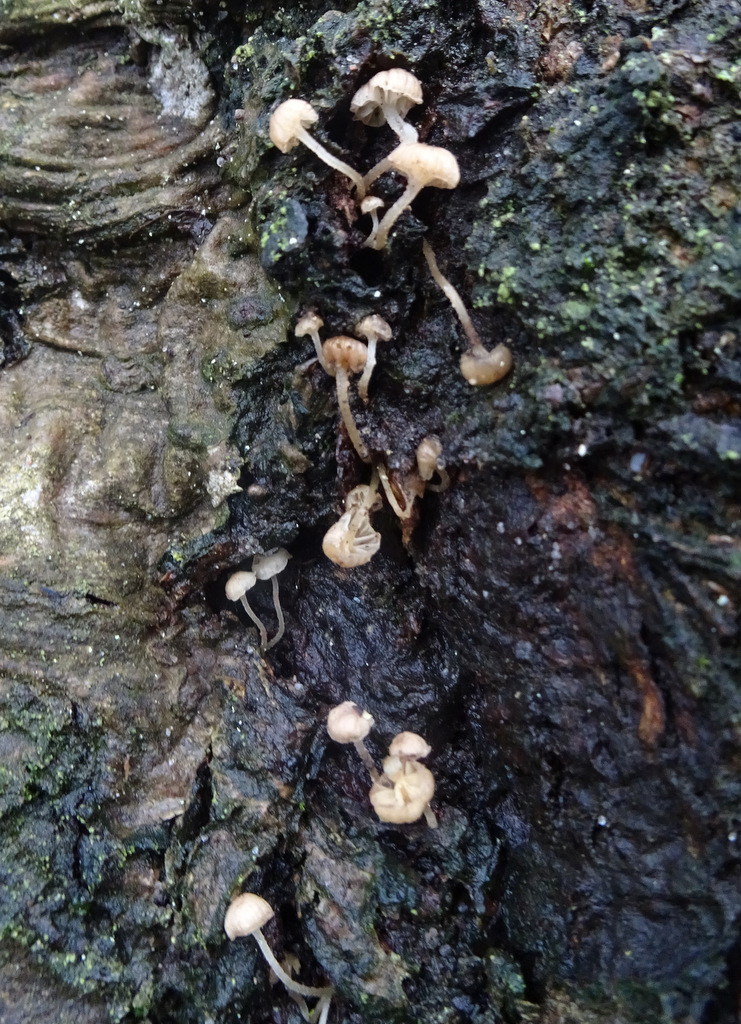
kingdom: Fungi
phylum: Basidiomycota
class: Agaricomycetes
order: Agaricales
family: Porotheleaceae
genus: Phloeomana
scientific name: Phloeomana speirea
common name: kvist-huesvamp
